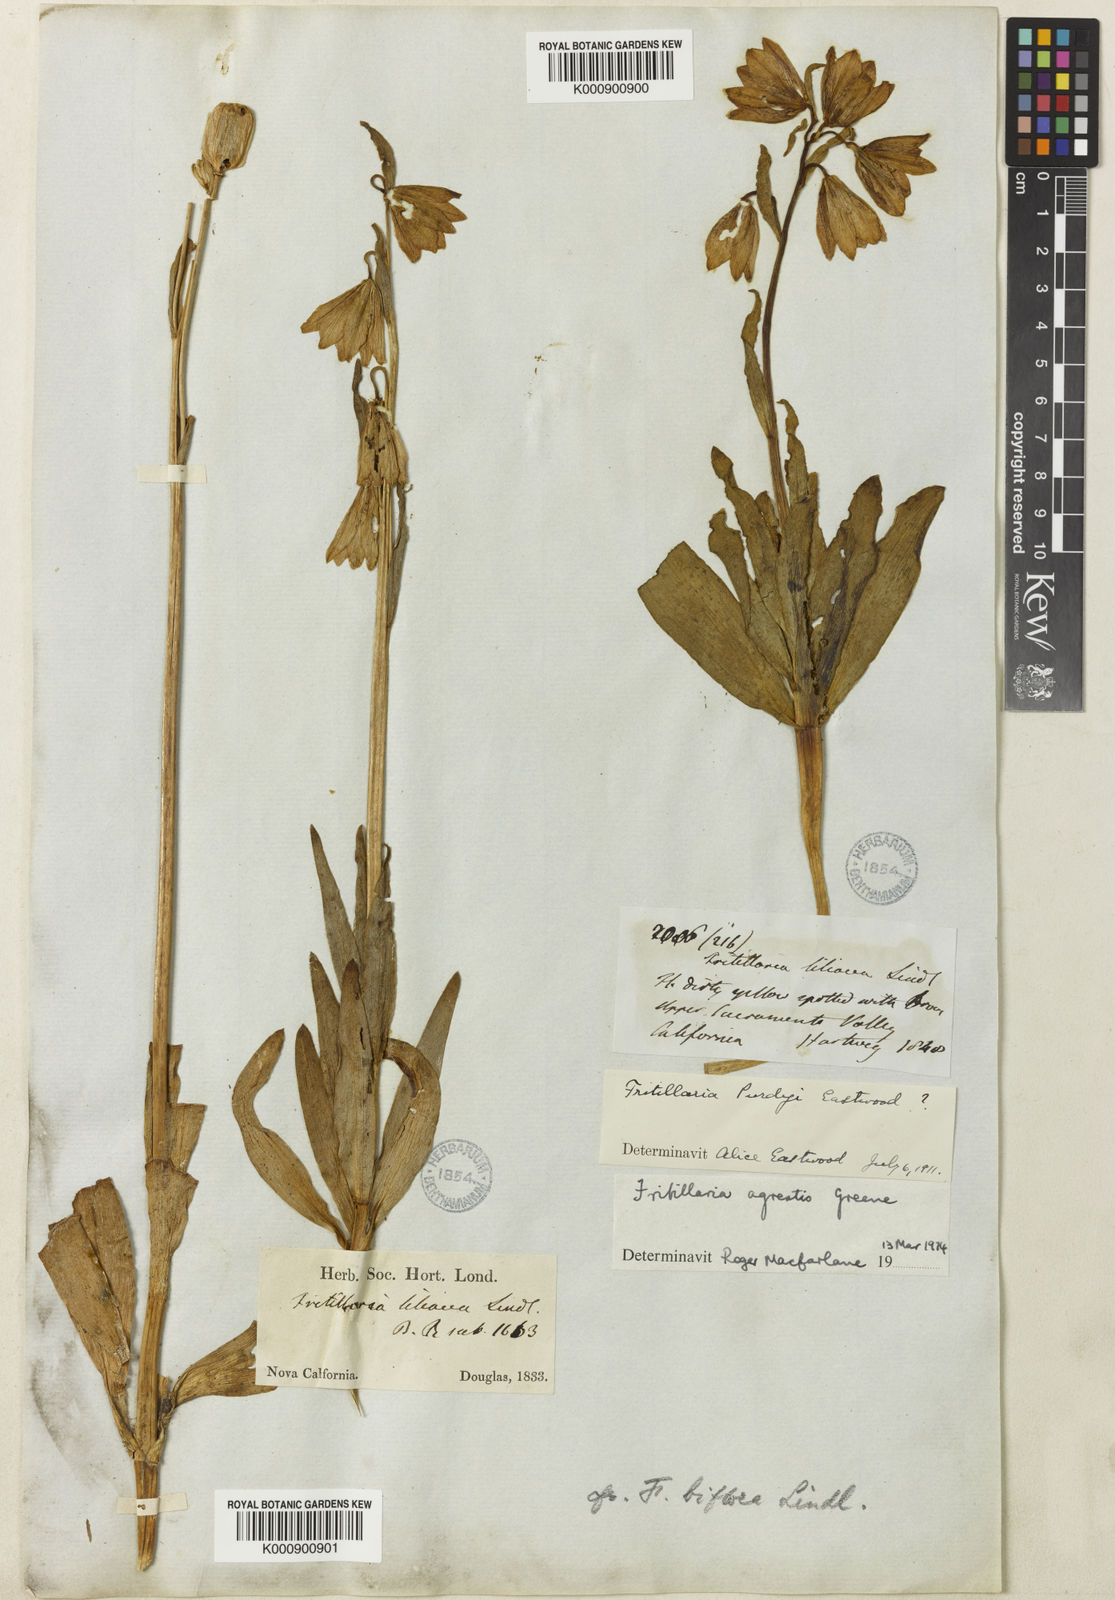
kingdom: Plantae
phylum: Tracheophyta
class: Liliopsida
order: Liliales
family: Liliaceae
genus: Fritillaria
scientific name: Fritillaria liliacea
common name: Fragrant fritillary
